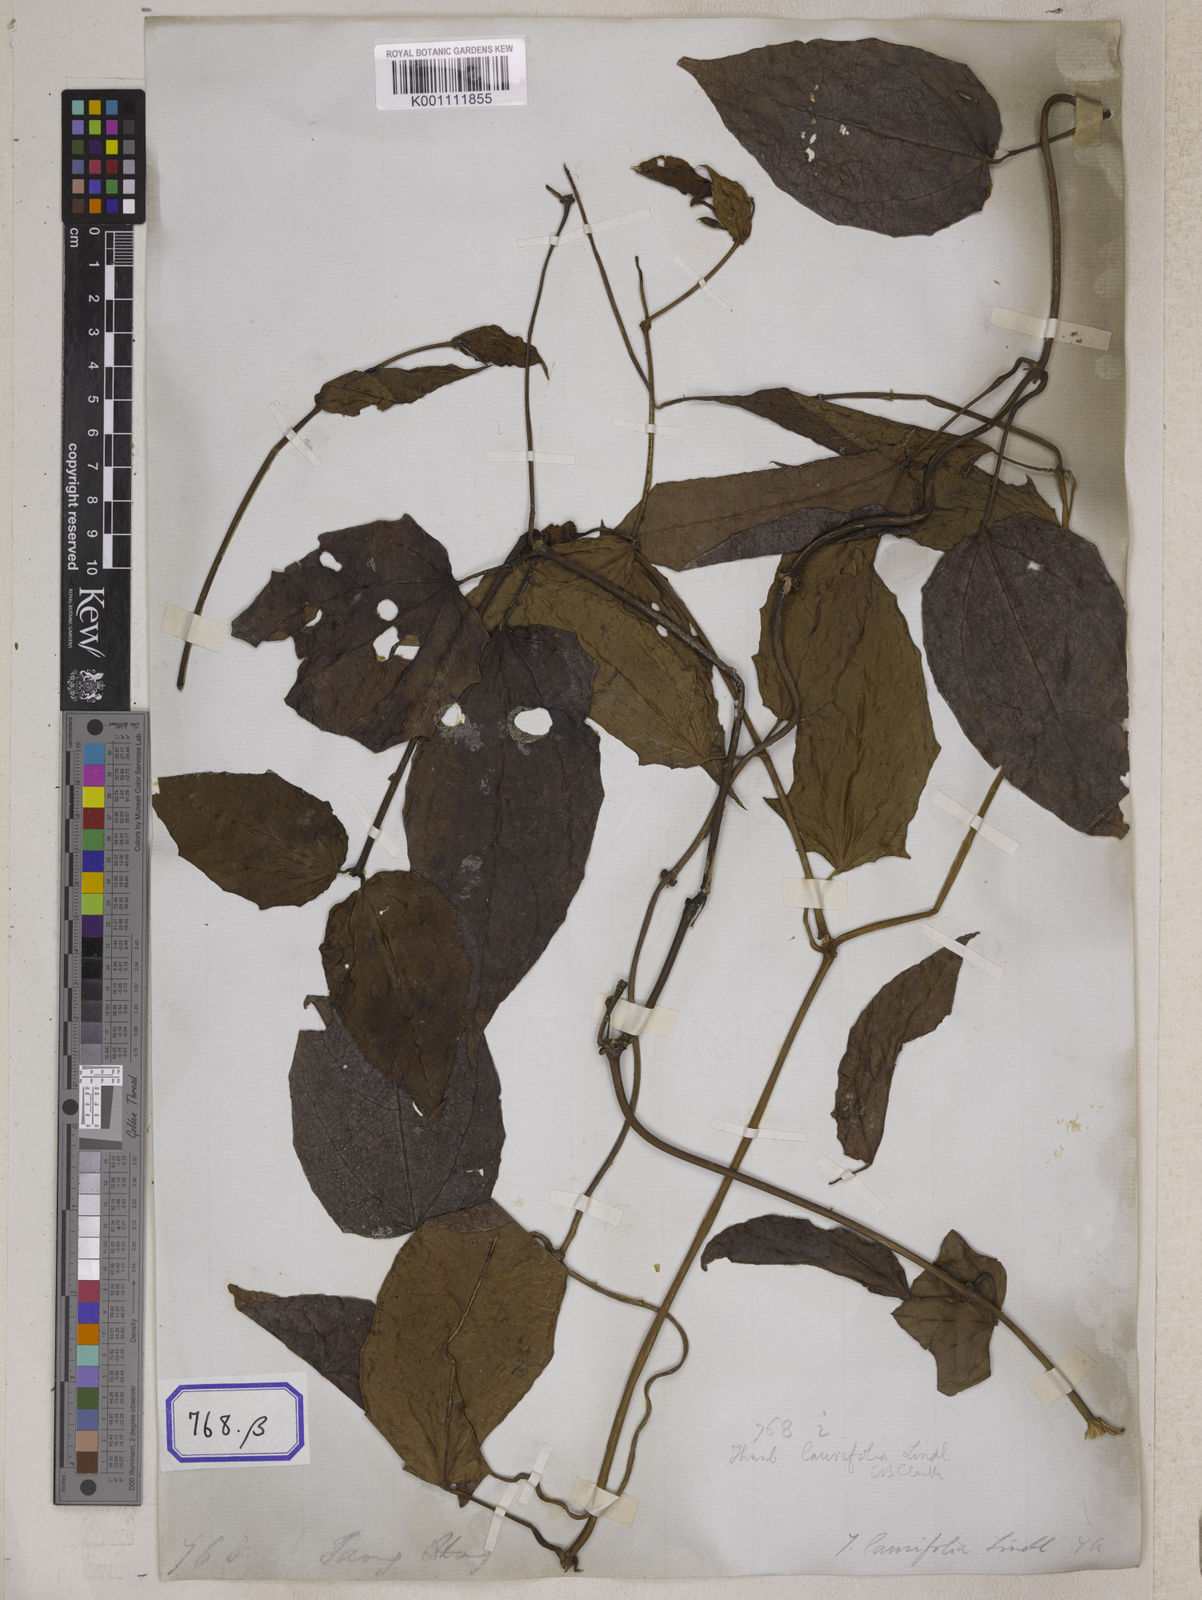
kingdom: Plantae
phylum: Tracheophyta
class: Magnoliopsida
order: Lamiales
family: Acanthaceae
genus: Thunbergia
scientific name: Thunbergia
